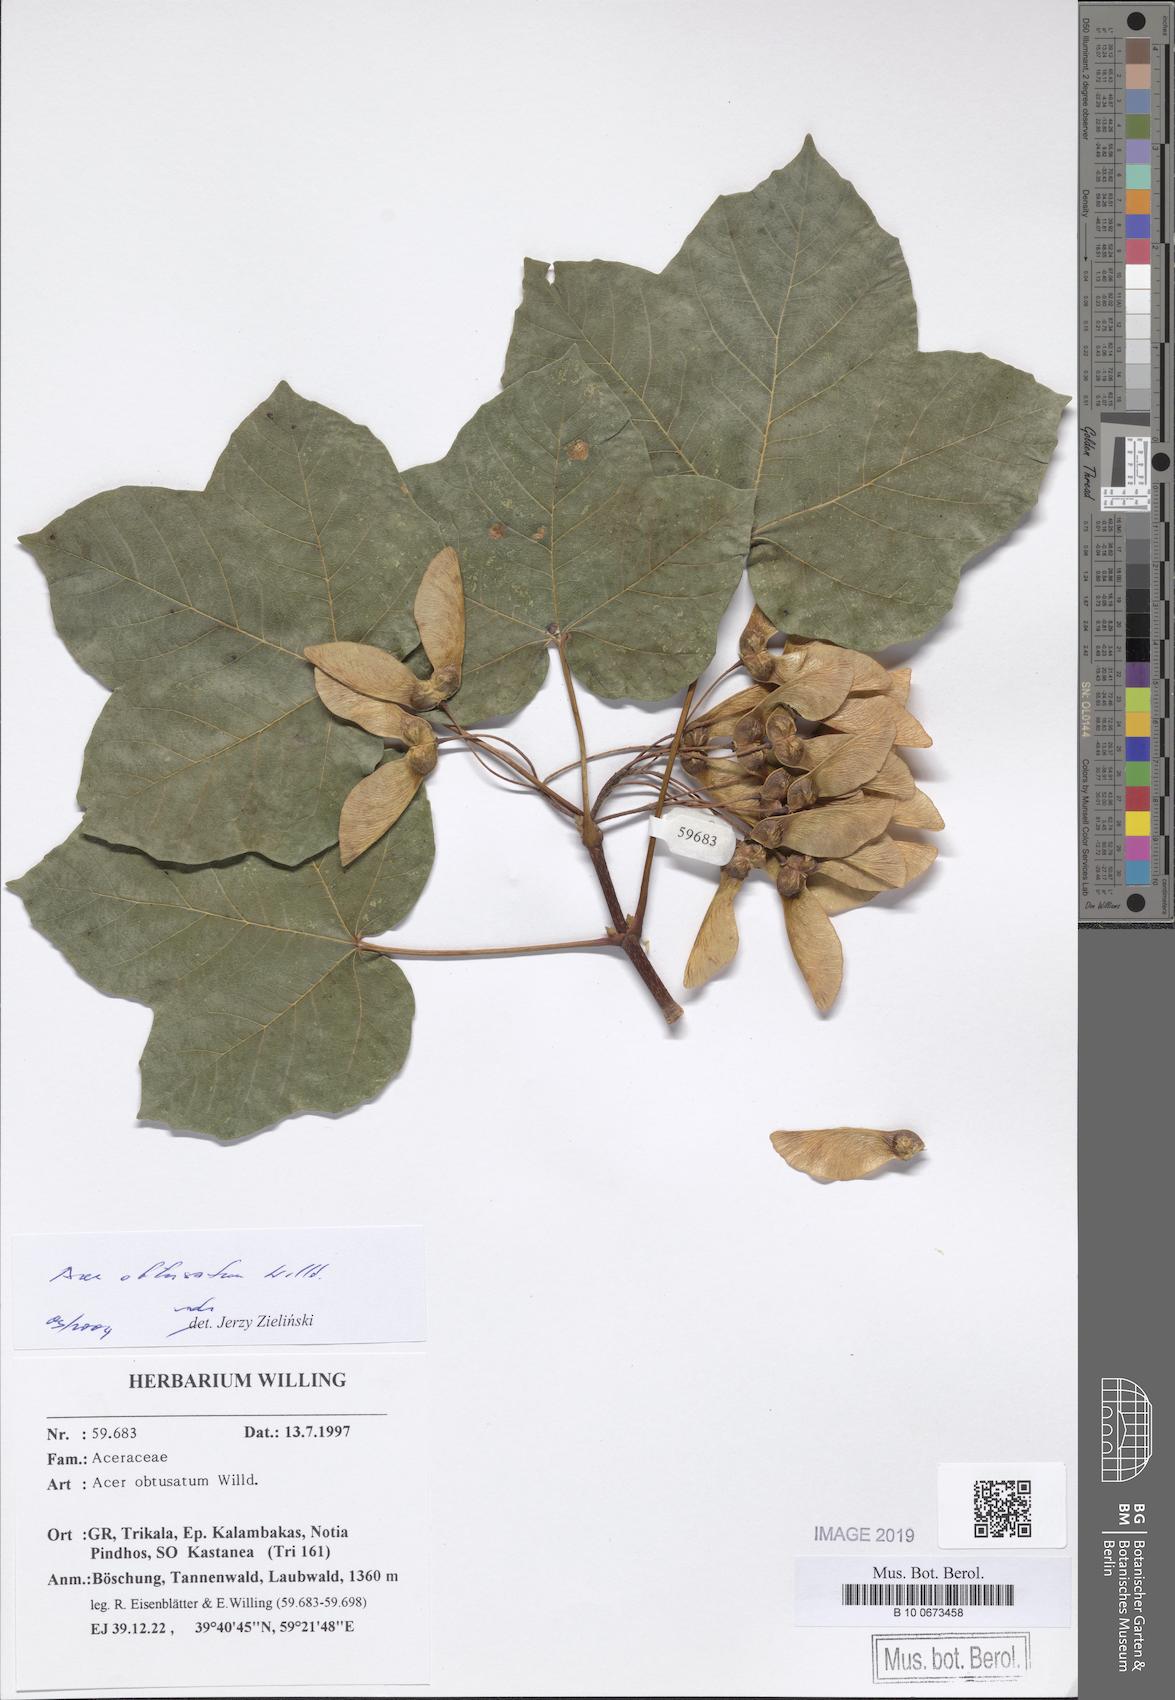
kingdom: Plantae
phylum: Tracheophyta
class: Magnoliopsida
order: Sapindales
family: Sapindaceae
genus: Acer
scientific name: Acer obtusatum
